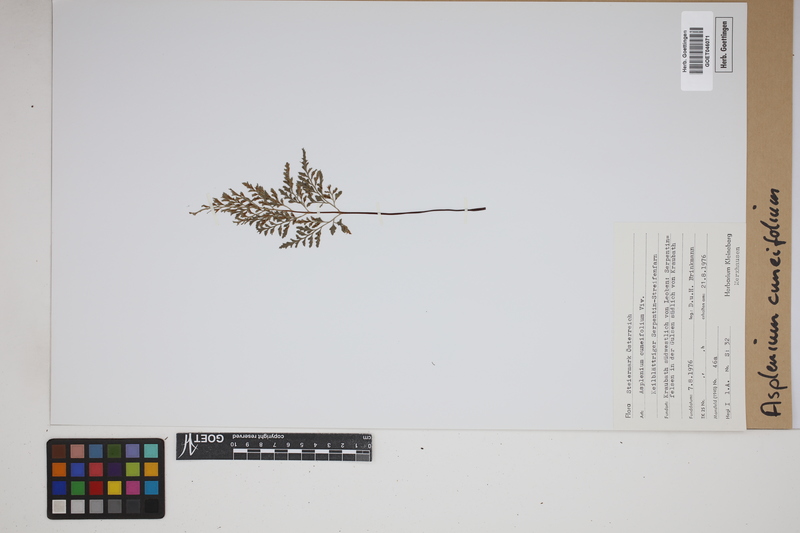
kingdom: Plantae
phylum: Tracheophyta
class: Polypodiopsida
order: Polypodiales
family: Aspleniaceae
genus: Asplenium
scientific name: Asplenium cuneifolium
